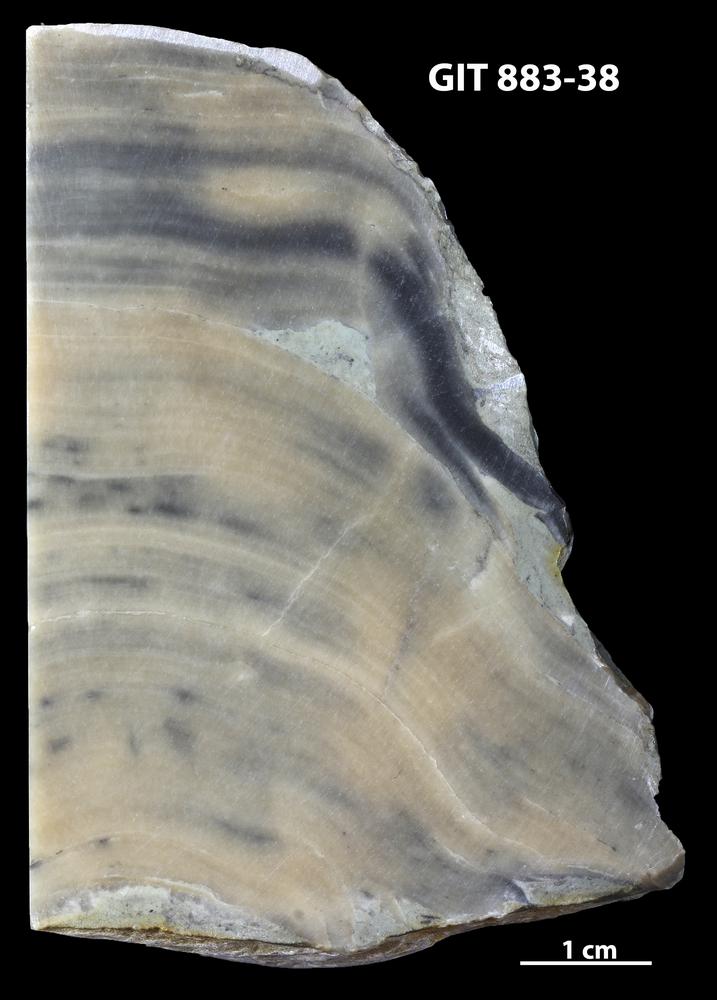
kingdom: Animalia
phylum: Porifera
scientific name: Porifera
